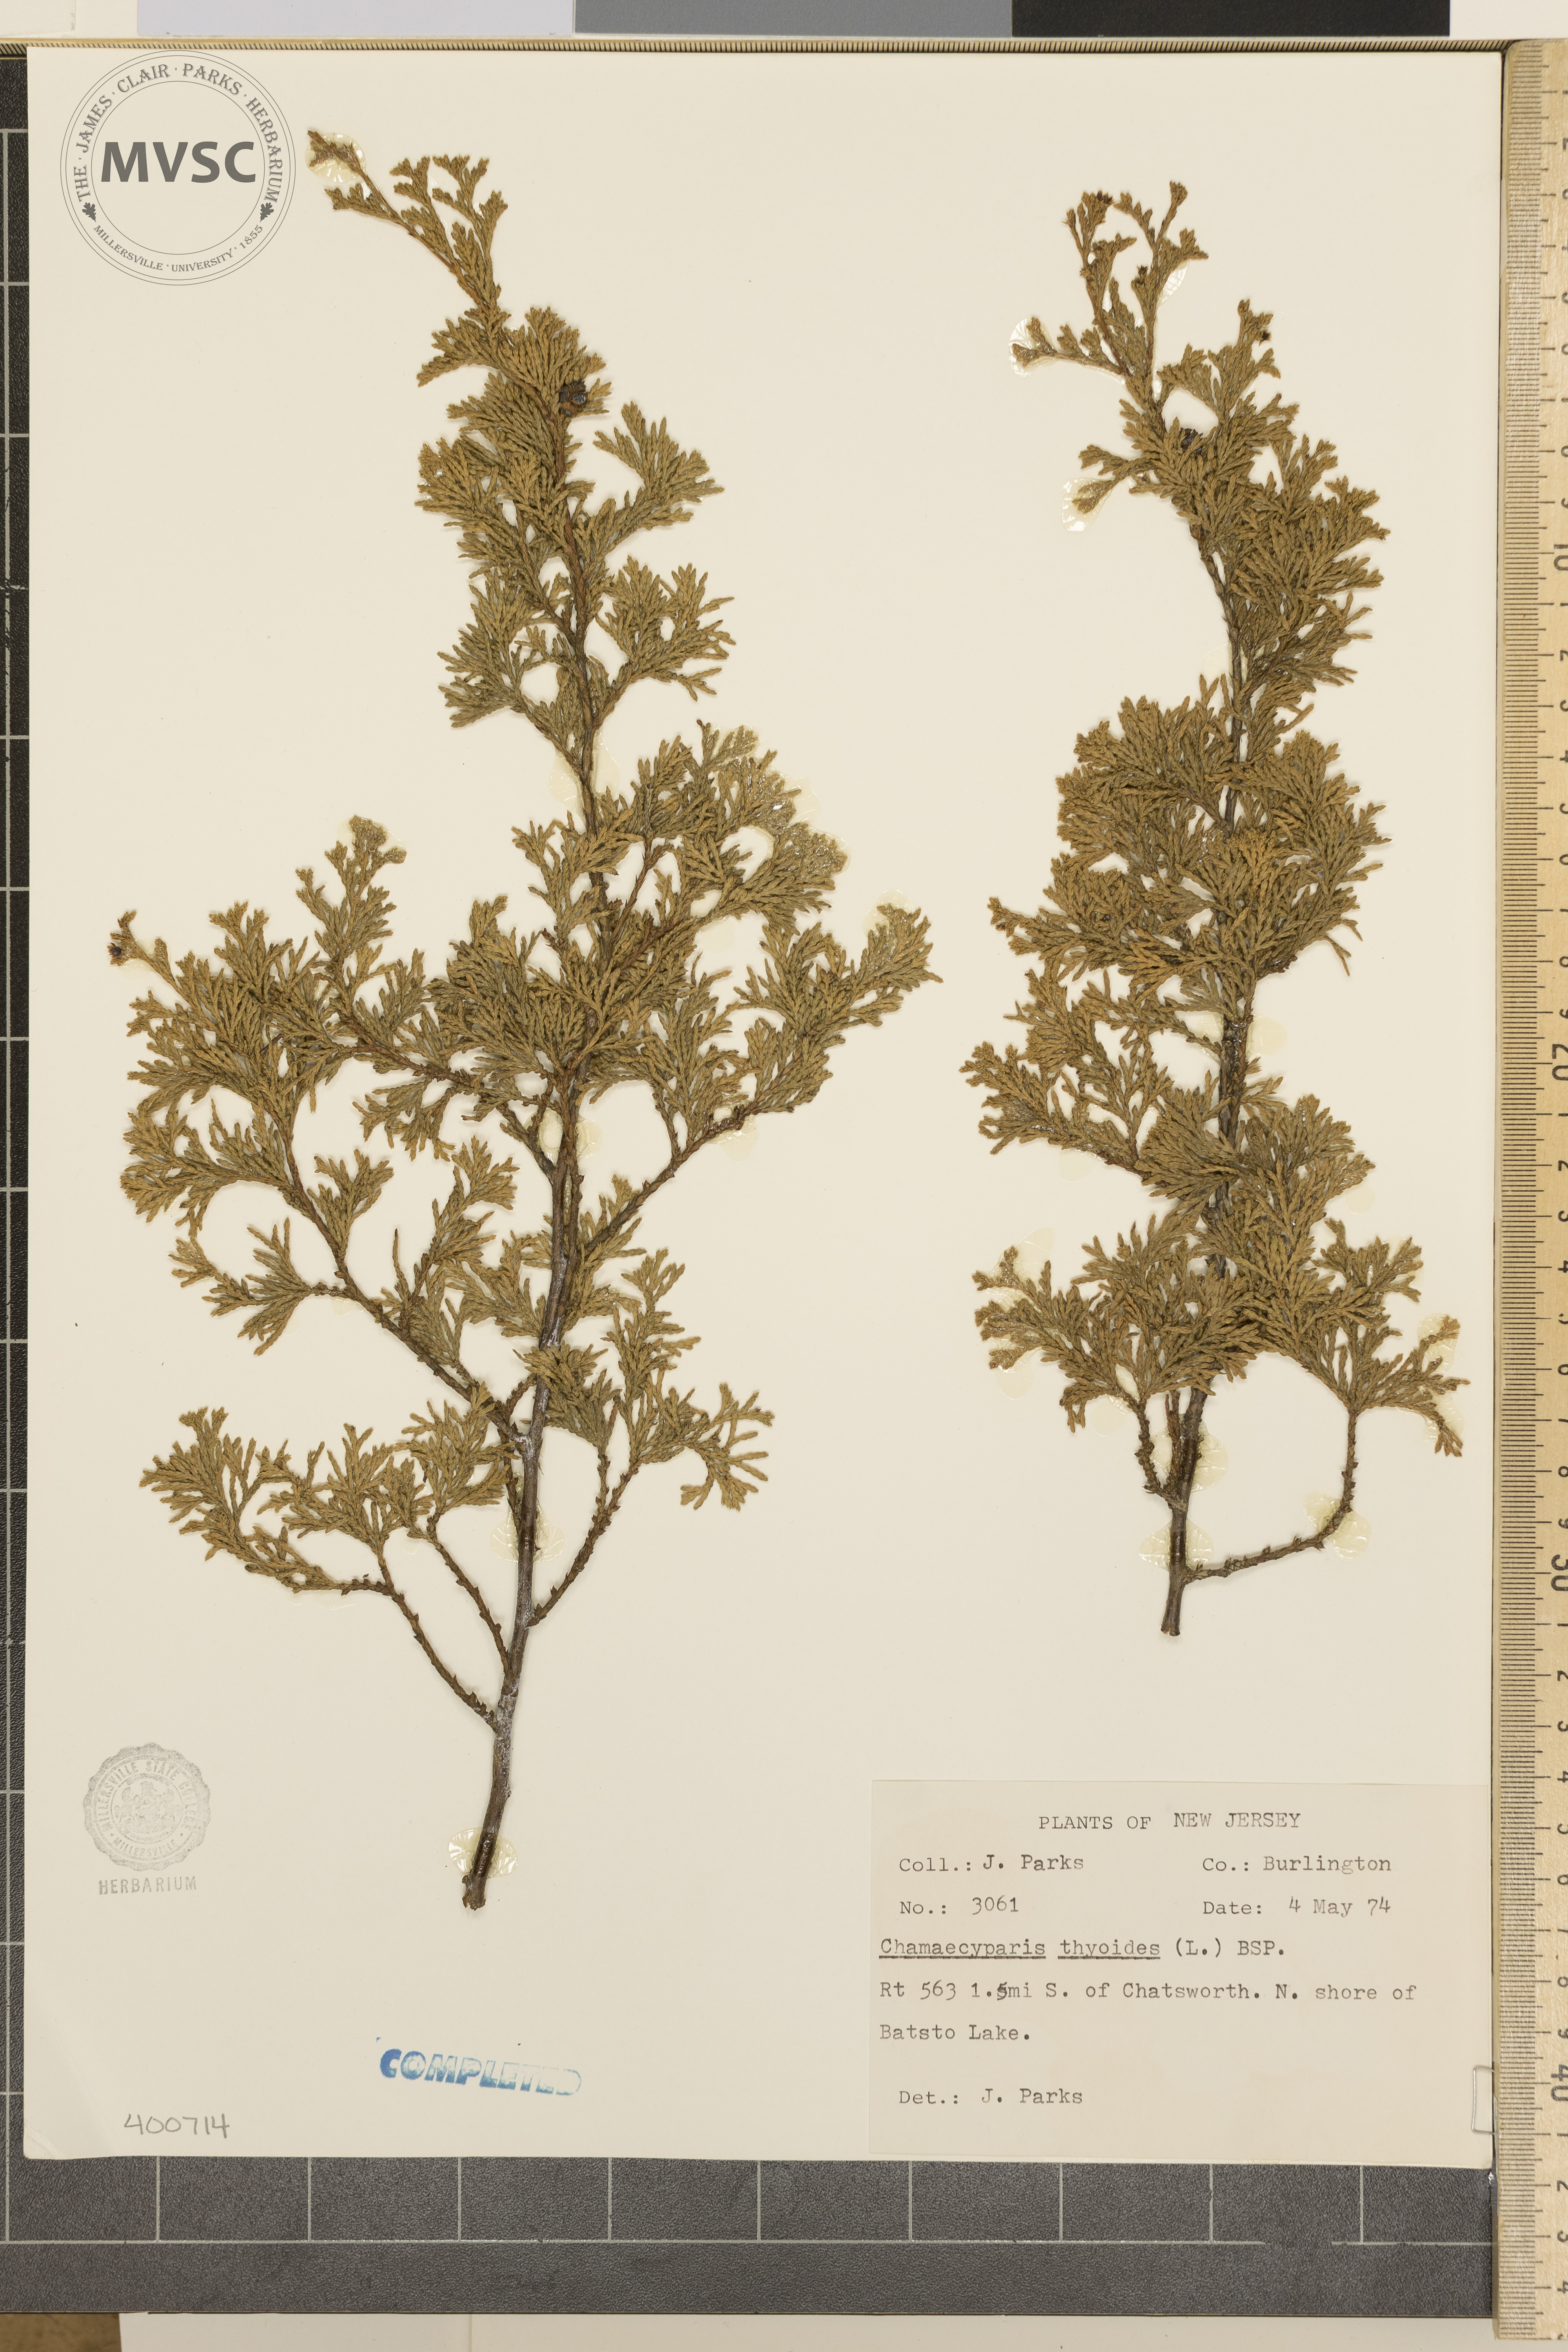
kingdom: Plantae
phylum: Tracheophyta
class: Pinopsida
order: Pinales
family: Cupressaceae
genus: Chamaecyparis
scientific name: Chamaecyparis thyoides
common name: Atlantic White-cedar
